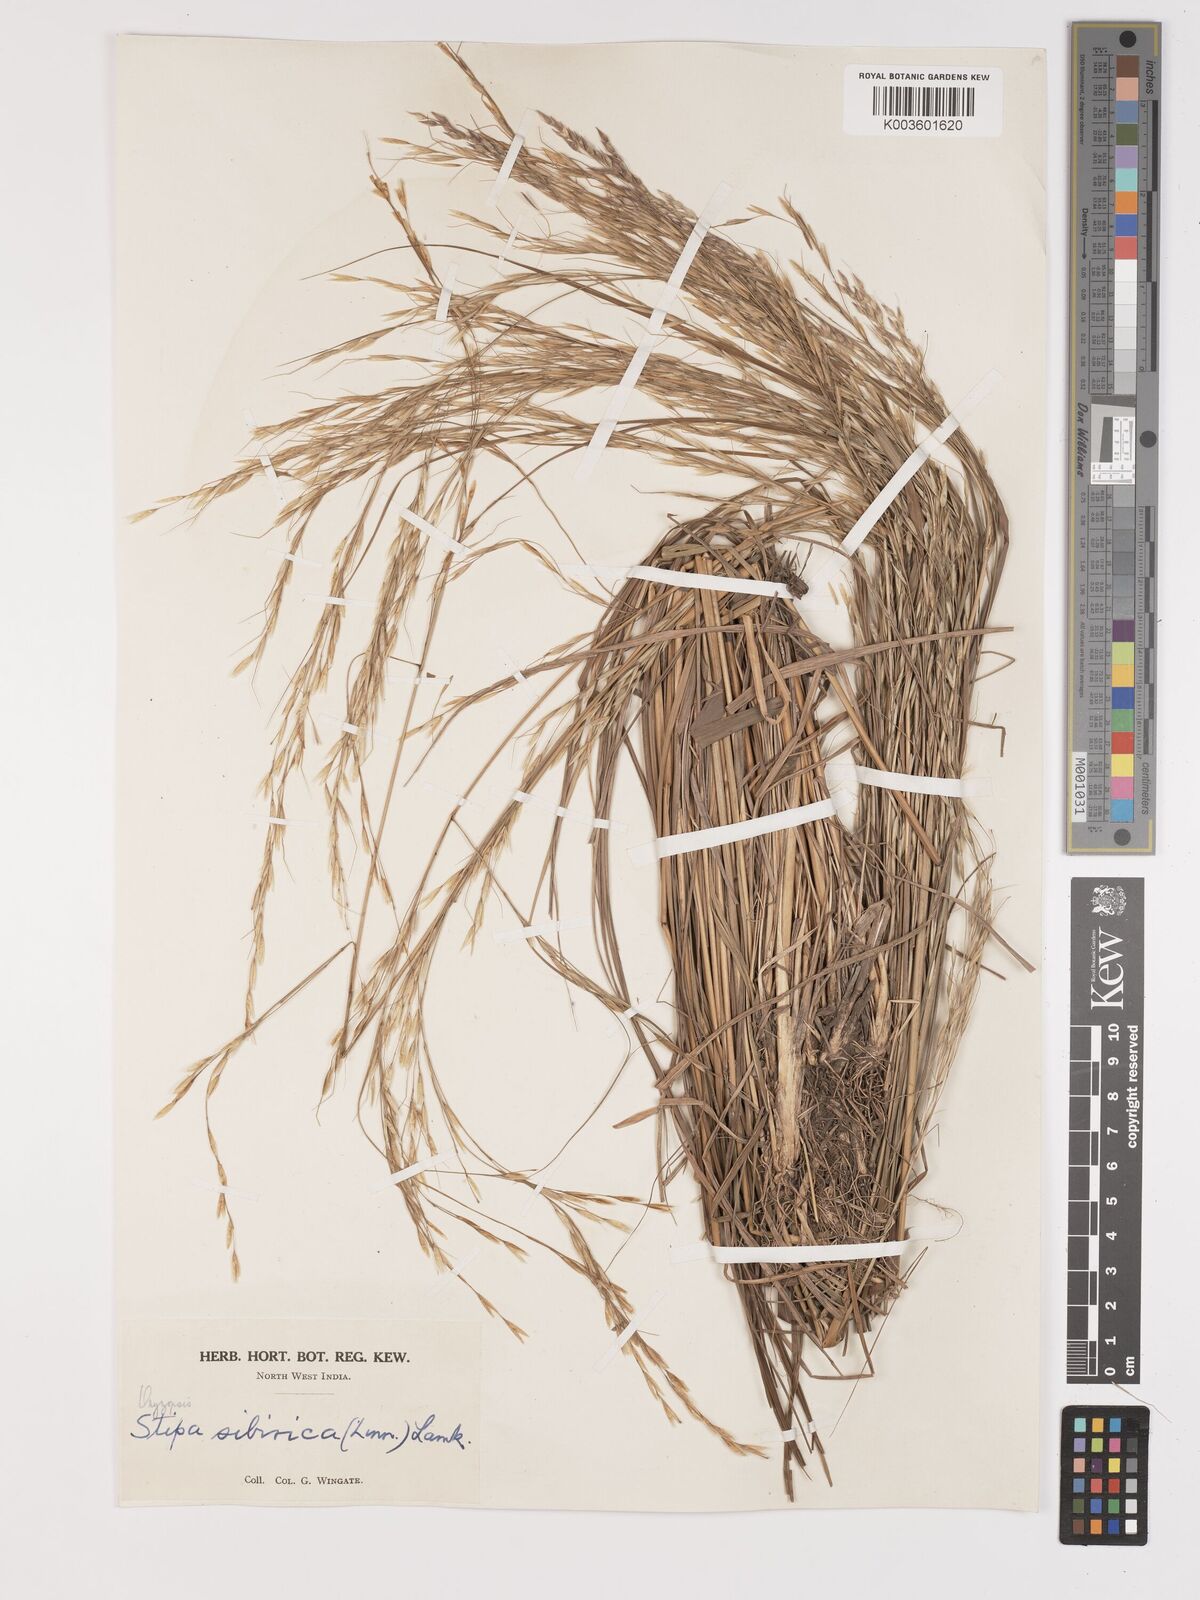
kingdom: Plantae
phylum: Tracheophyta
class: Liliopsida
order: Poales
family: Poaceae
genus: Achnatherum
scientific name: Achnatherum brandisii
